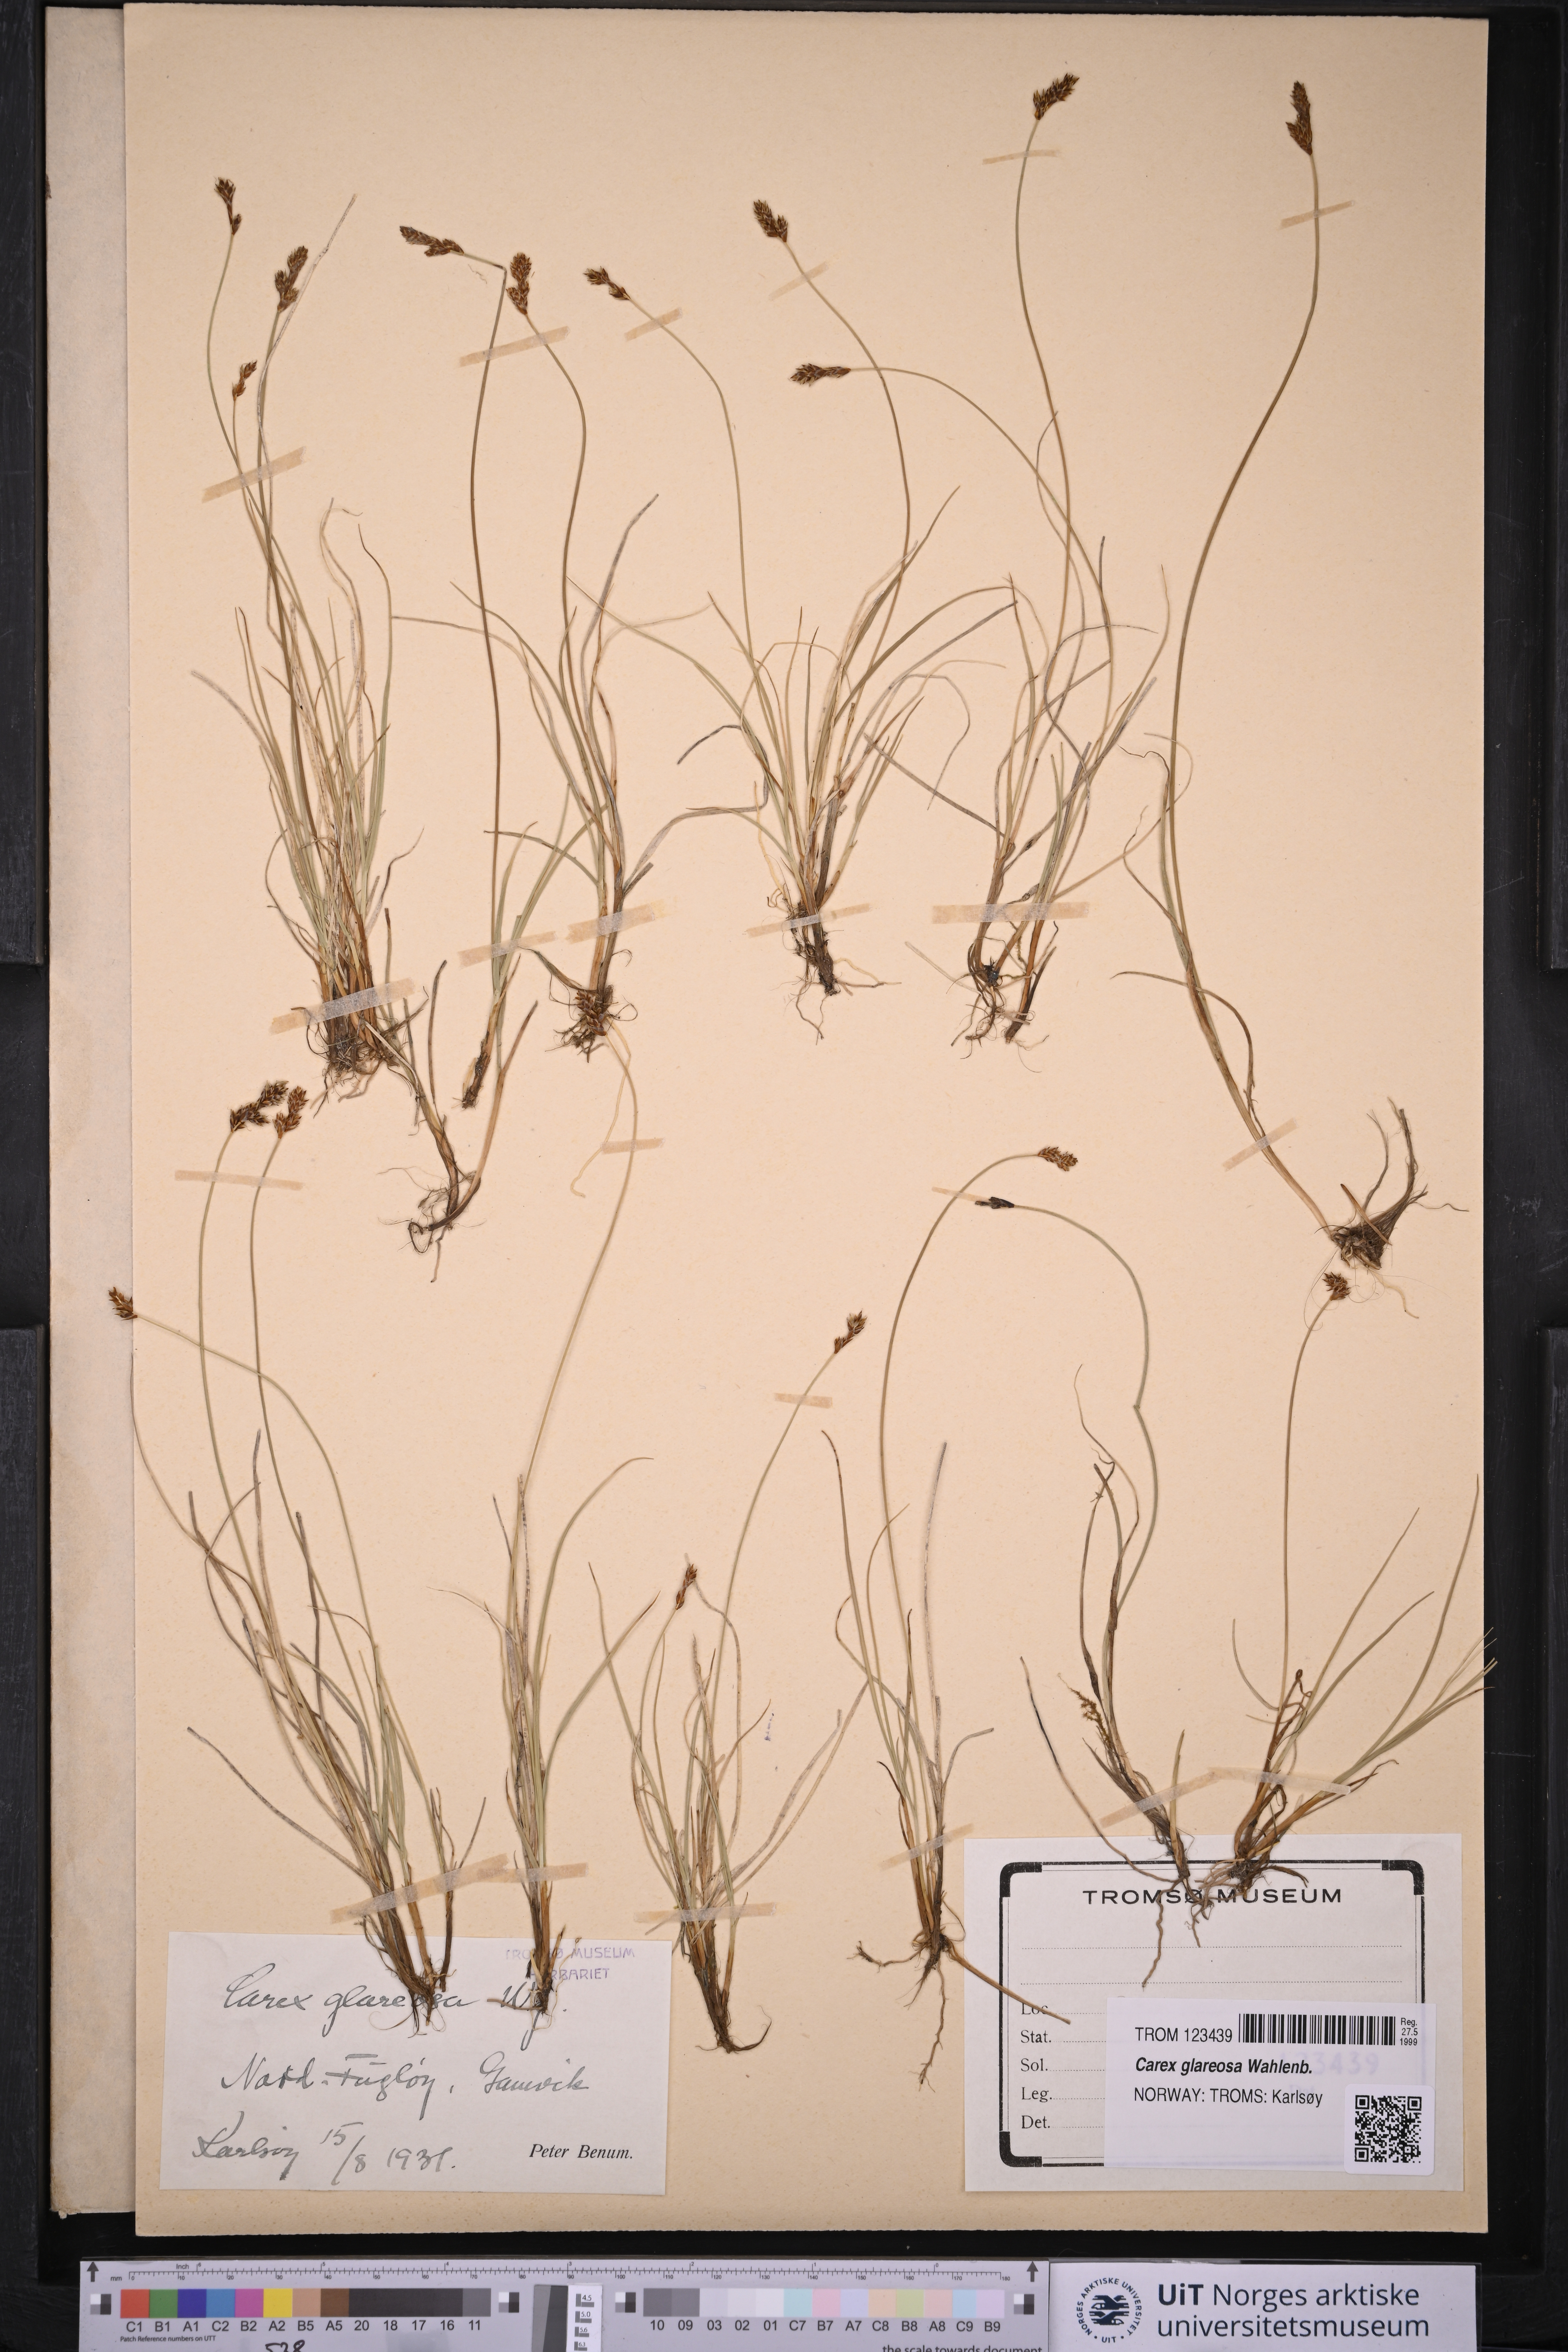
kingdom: Plantae
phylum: Tracheophyta
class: Liliopsida
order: Poales
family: Cyperaceae
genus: Carex
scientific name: Carex glareosa
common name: Clustered sedge
